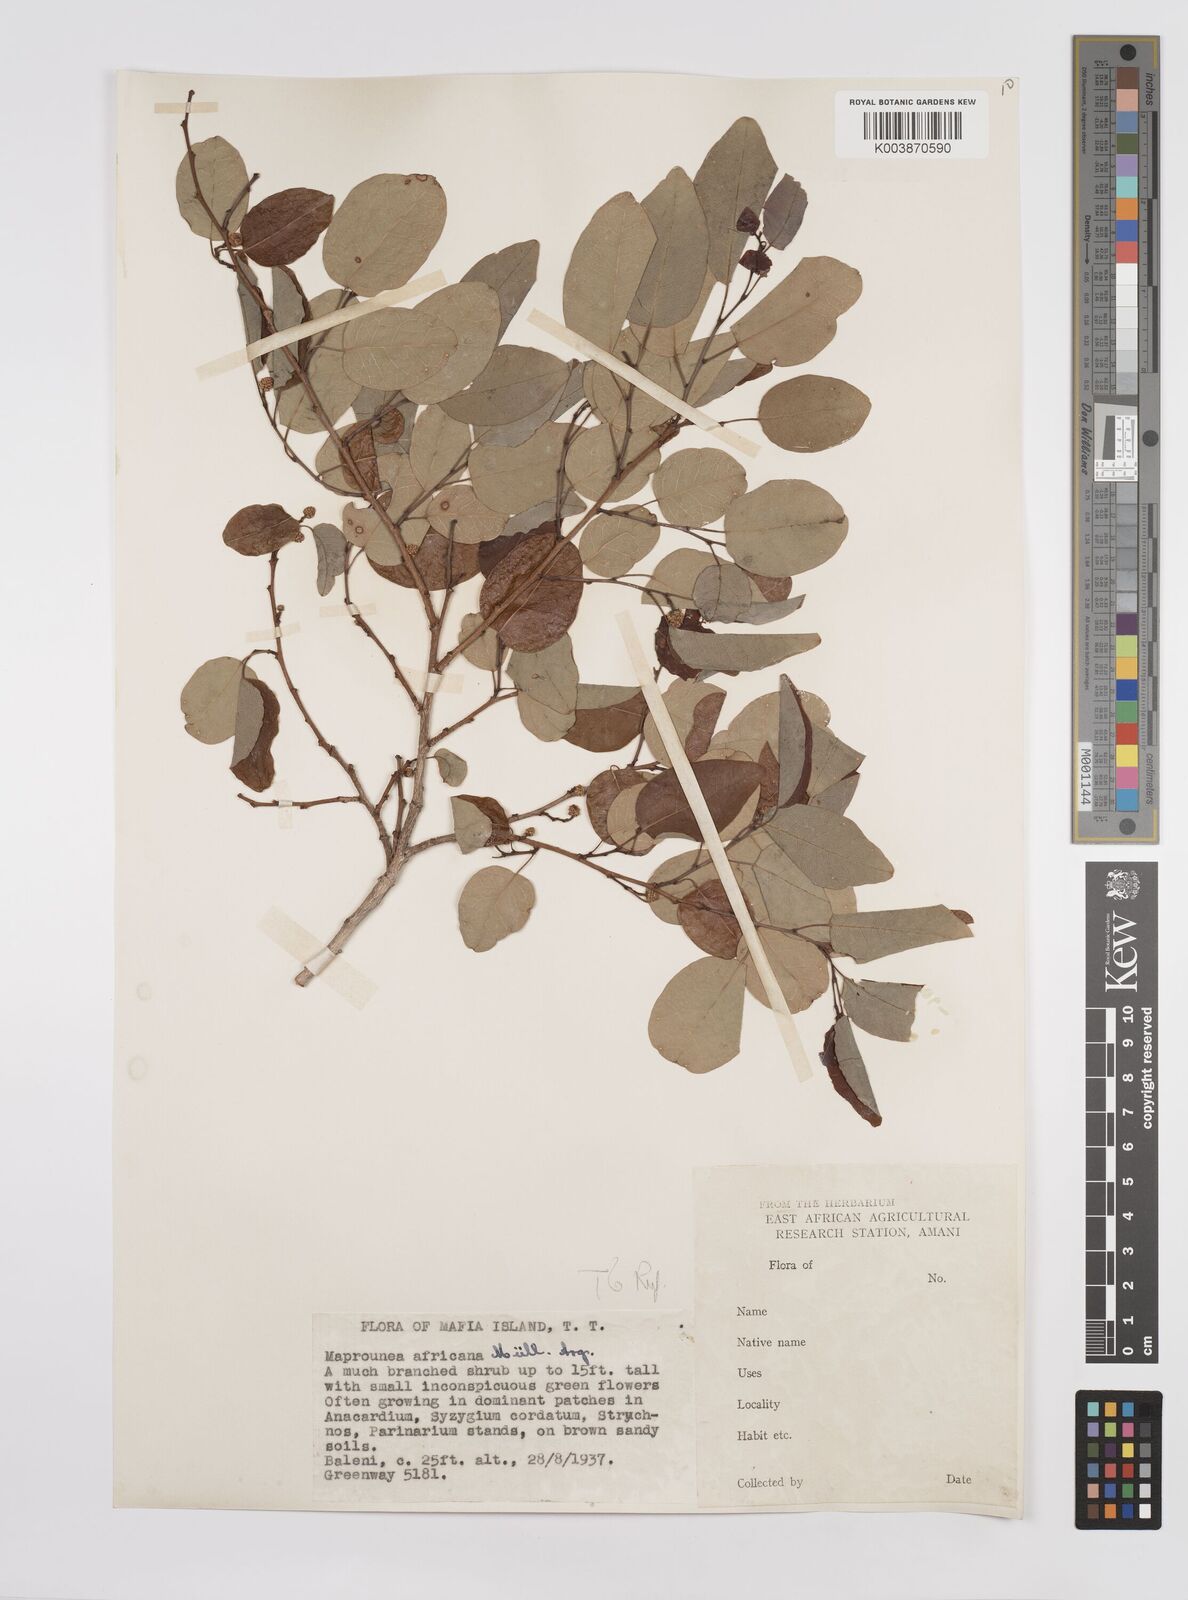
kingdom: Plantae
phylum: Tracheophyta
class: Magnoliopsida
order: Malpighiales
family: Euphorbiaceae
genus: Maprounea
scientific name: Maprounea africana
